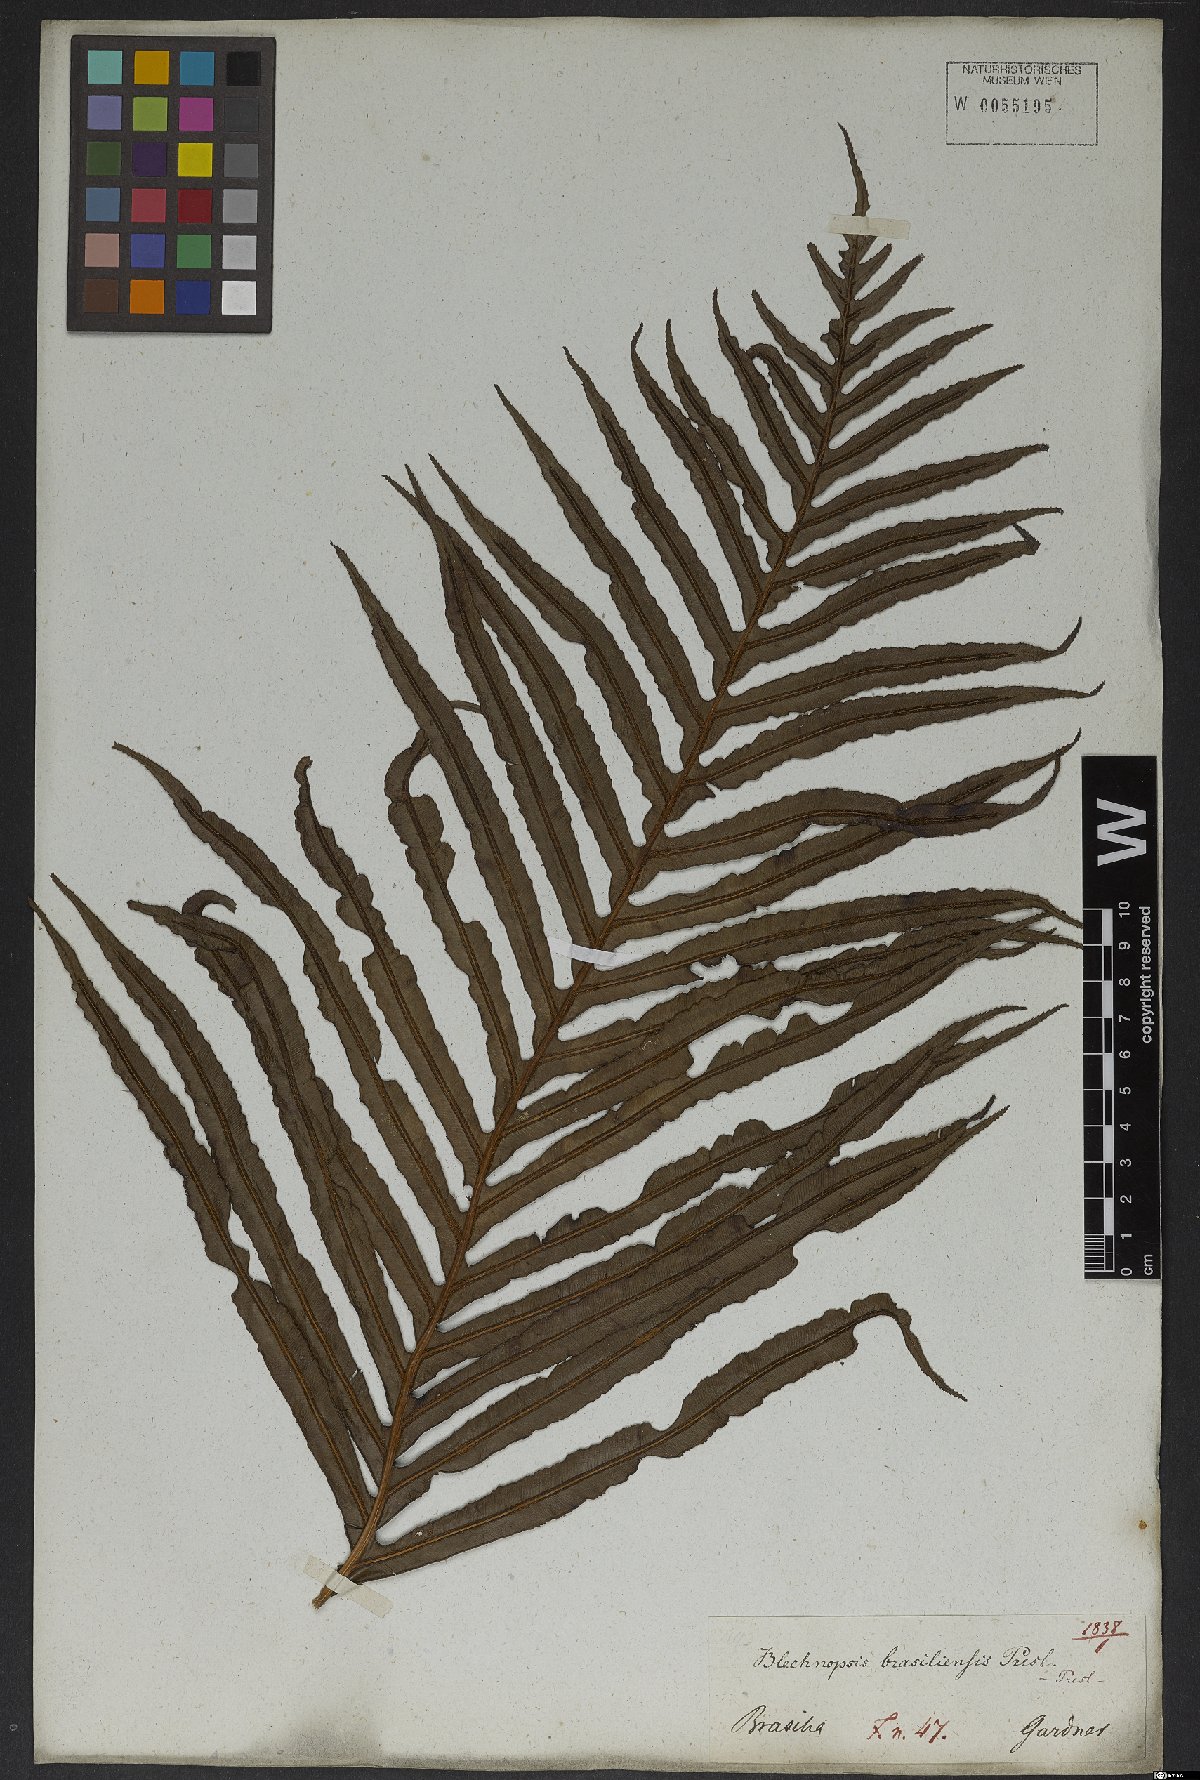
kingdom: Plantae
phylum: Tracheophyta
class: Polypodiopsida
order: Polypodiales
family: Blechnaceae
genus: Neoblechnum
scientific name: Neoblechnum brasiliense
